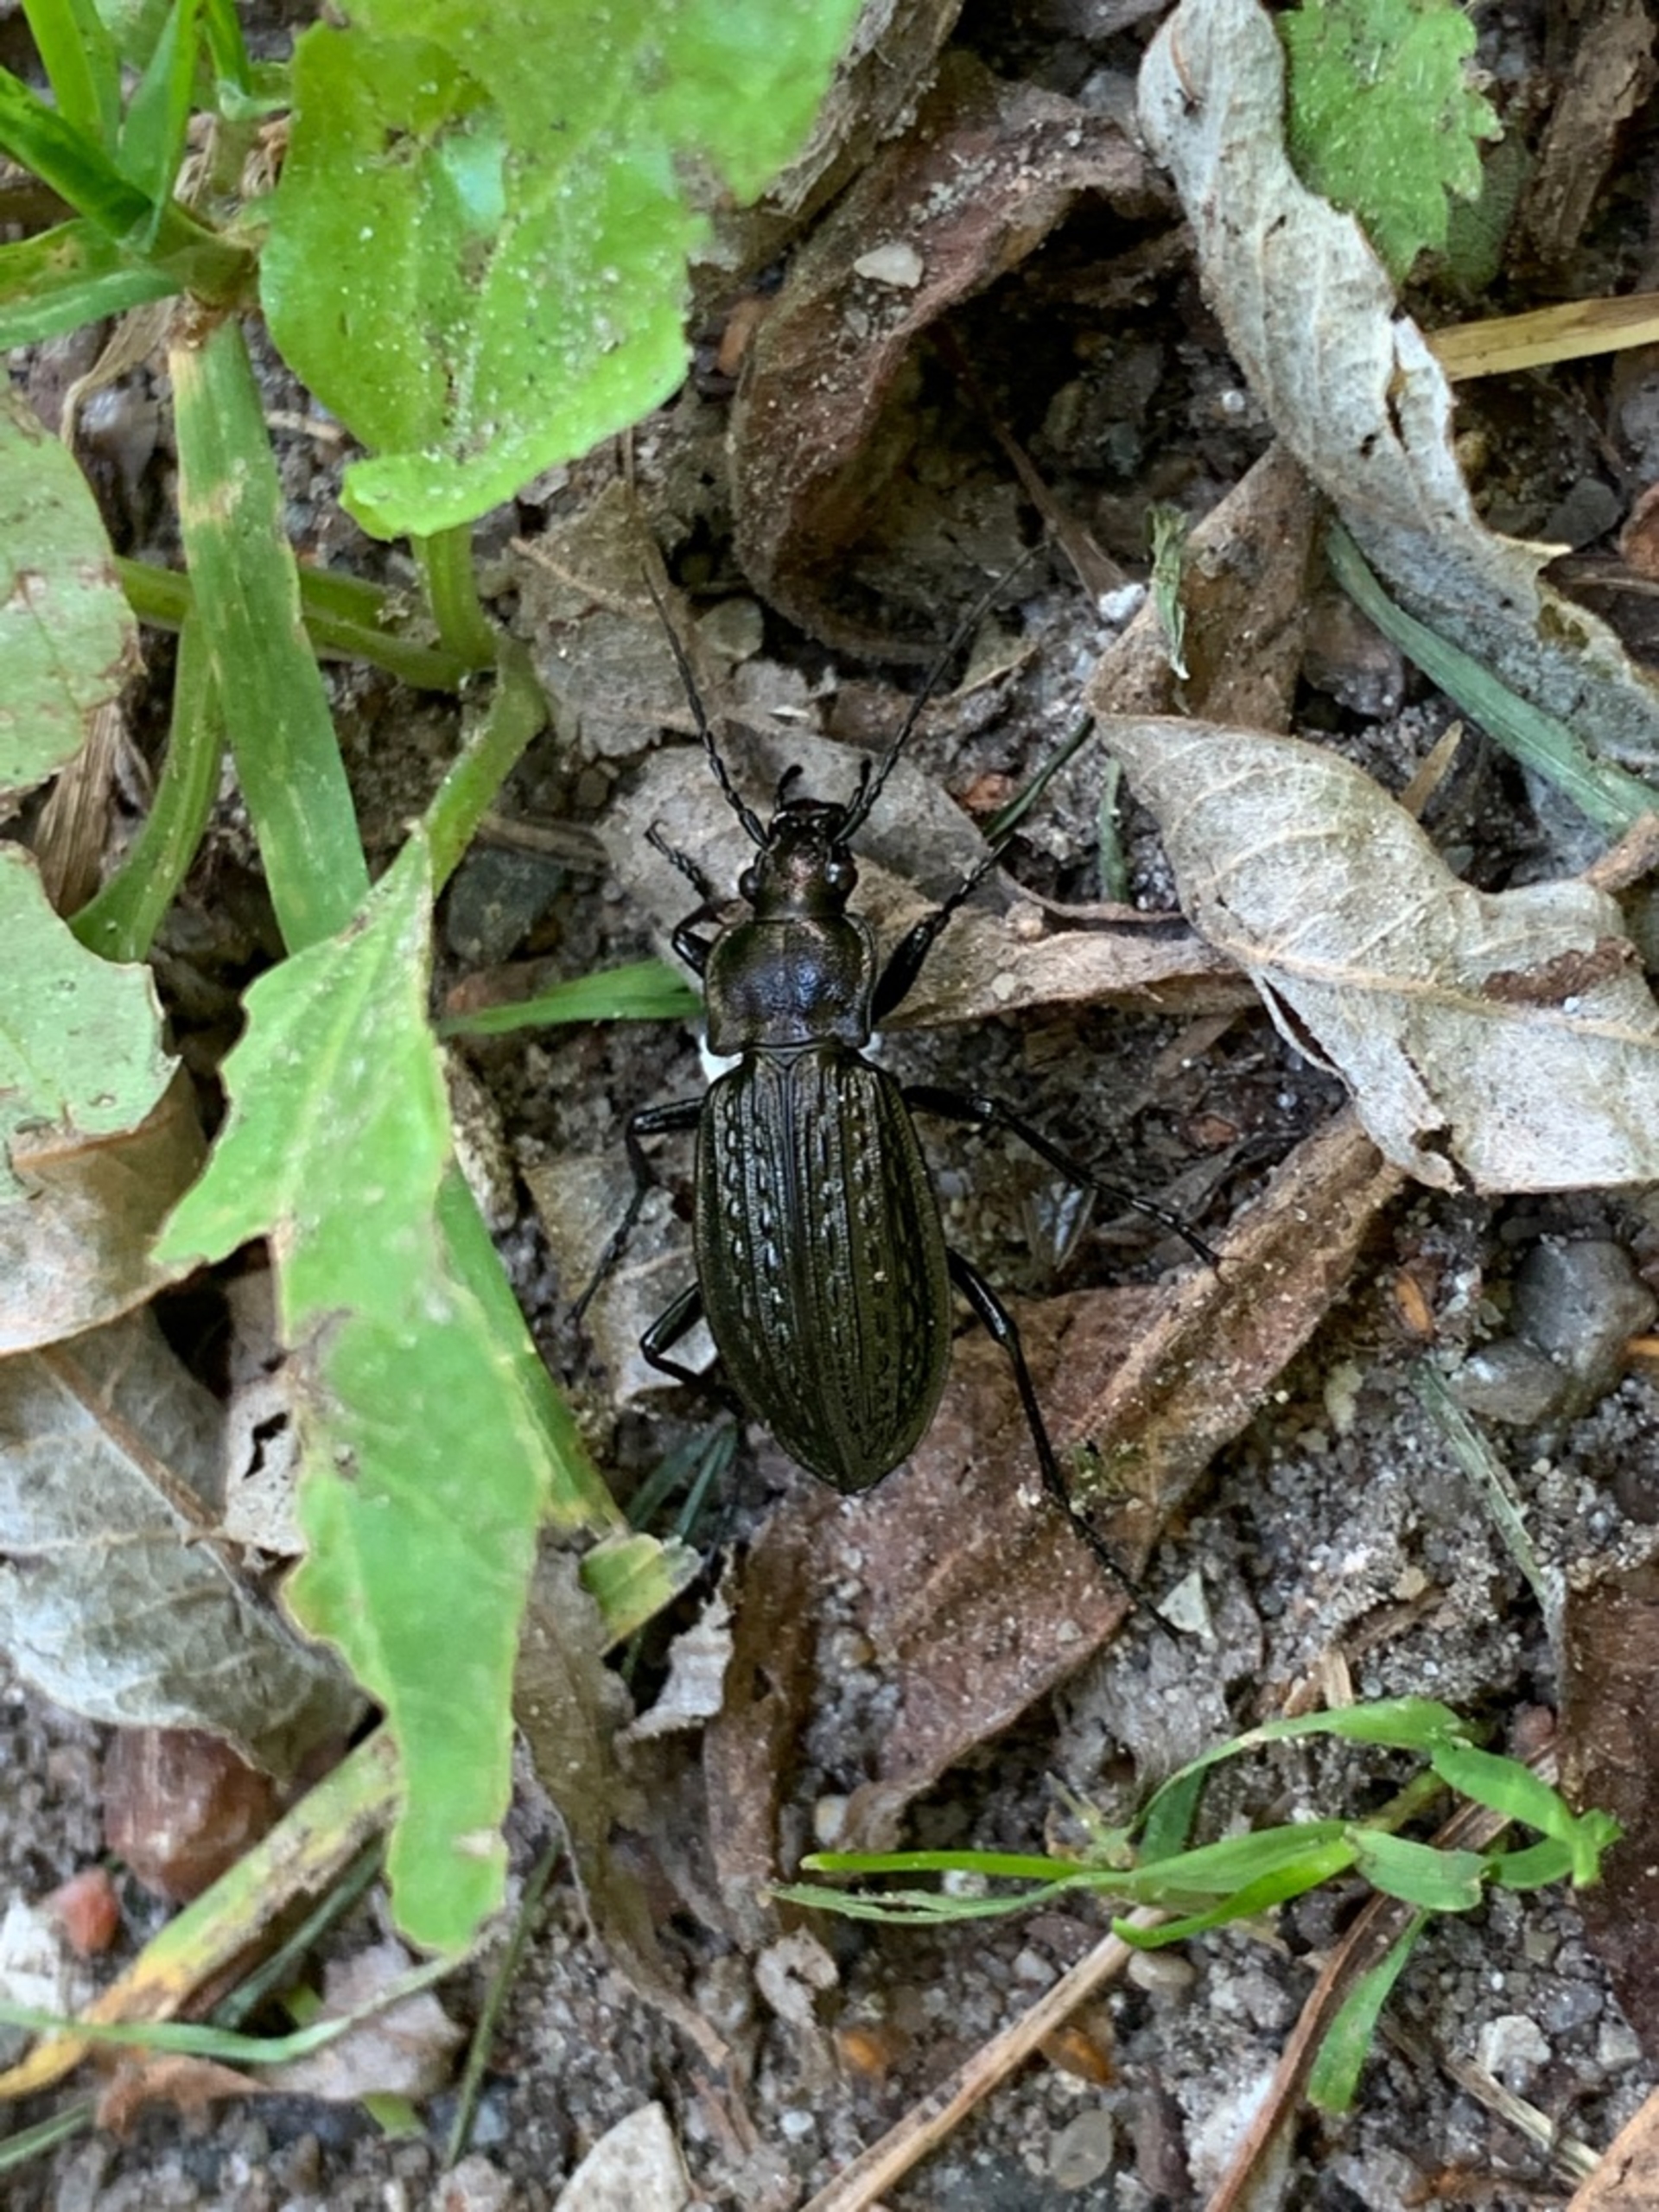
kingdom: Animalia
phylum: Arthropoda
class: Insecta
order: Coleoptera
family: Carabidae
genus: Carabus
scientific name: Carabus granulatus
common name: Kornet løber
